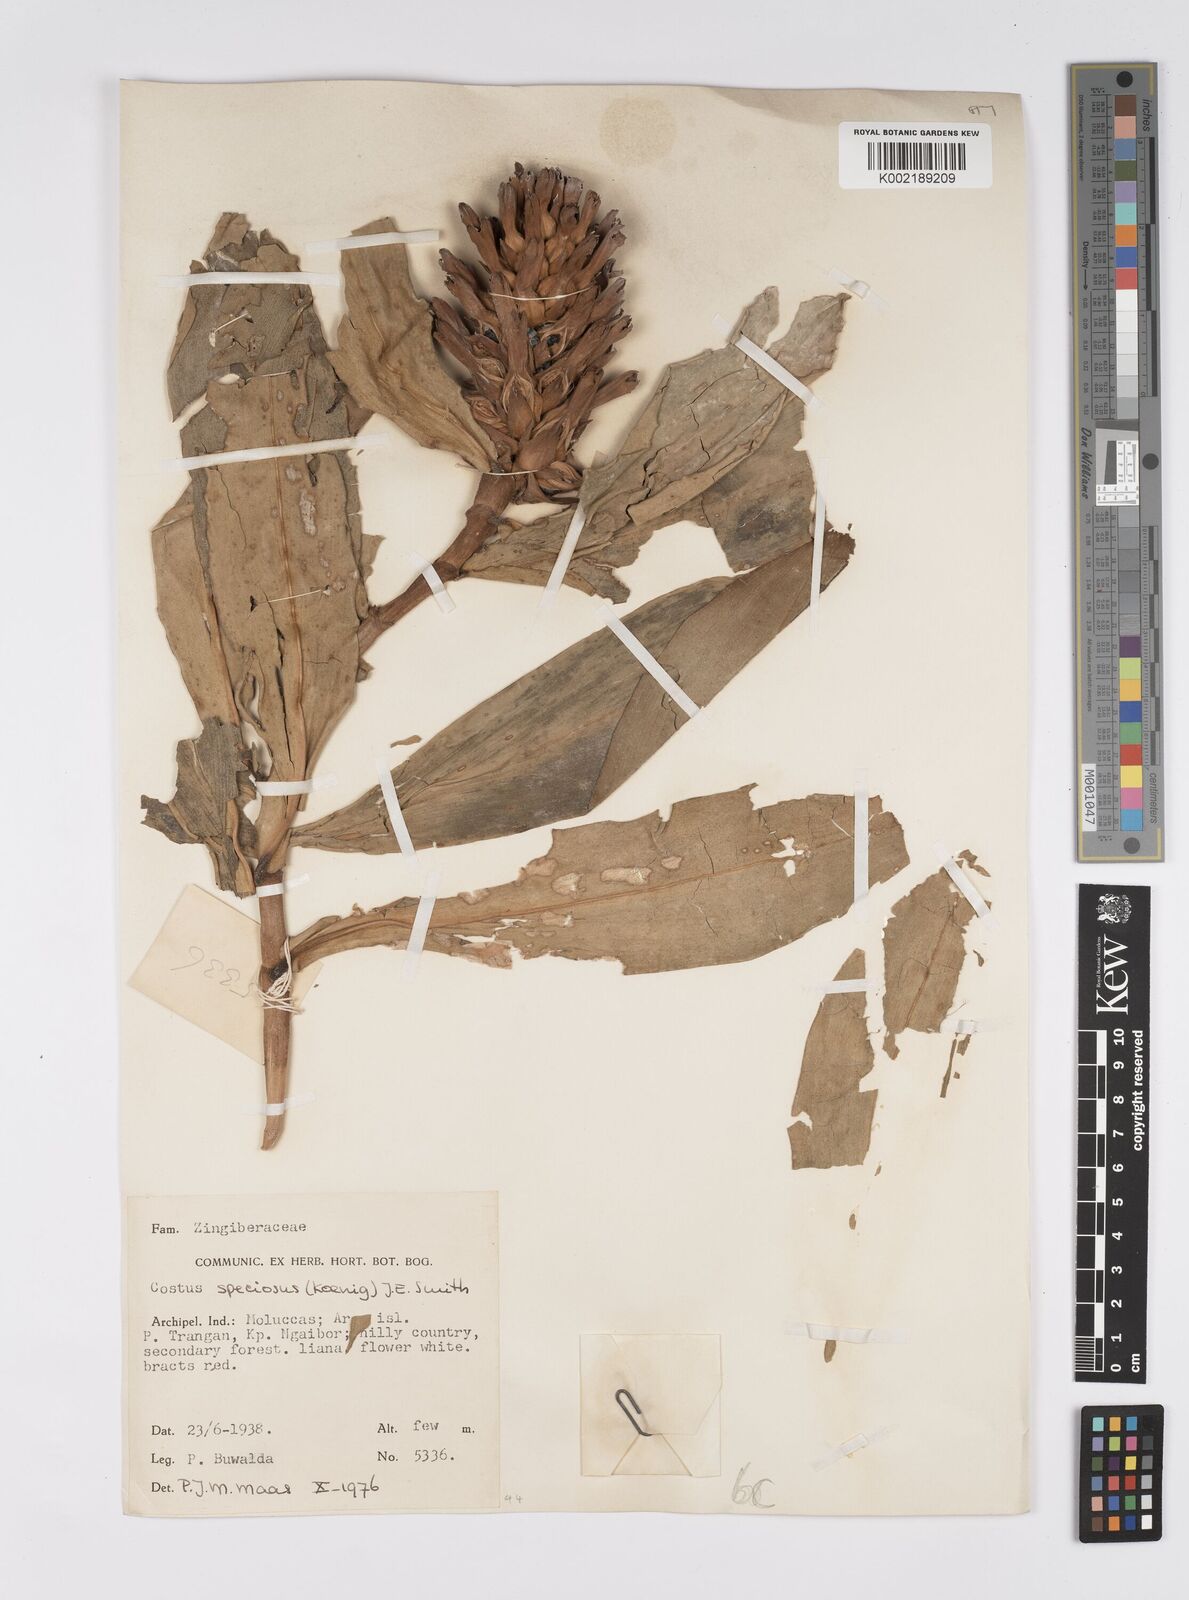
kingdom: Plantae
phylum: Tracheophyta
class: Liliopsida
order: Zingiberales
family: Costaceae
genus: Hellenia
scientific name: Hellenia speciosa
